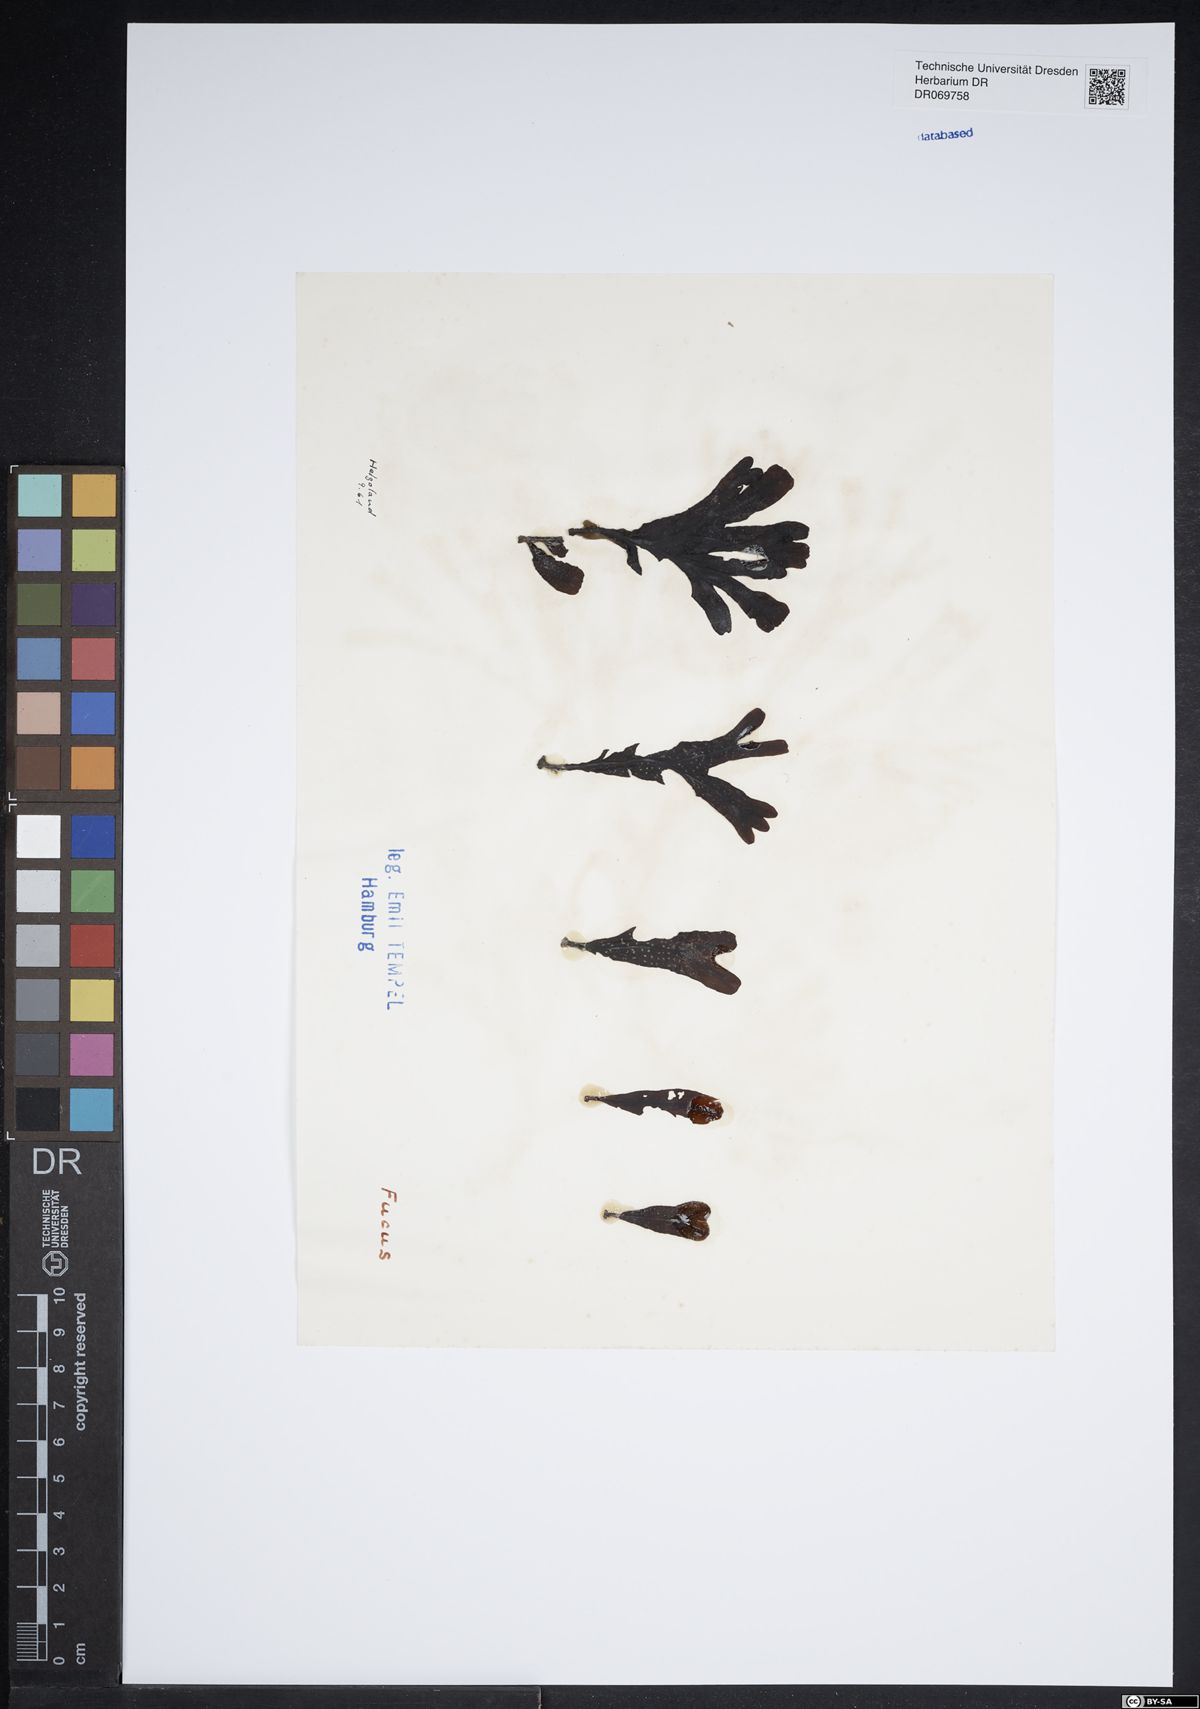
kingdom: Chromista
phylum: Ochrophyta
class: Phaeophyceae
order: Fucales
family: Fucaceae
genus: Fucus
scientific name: Fucus
